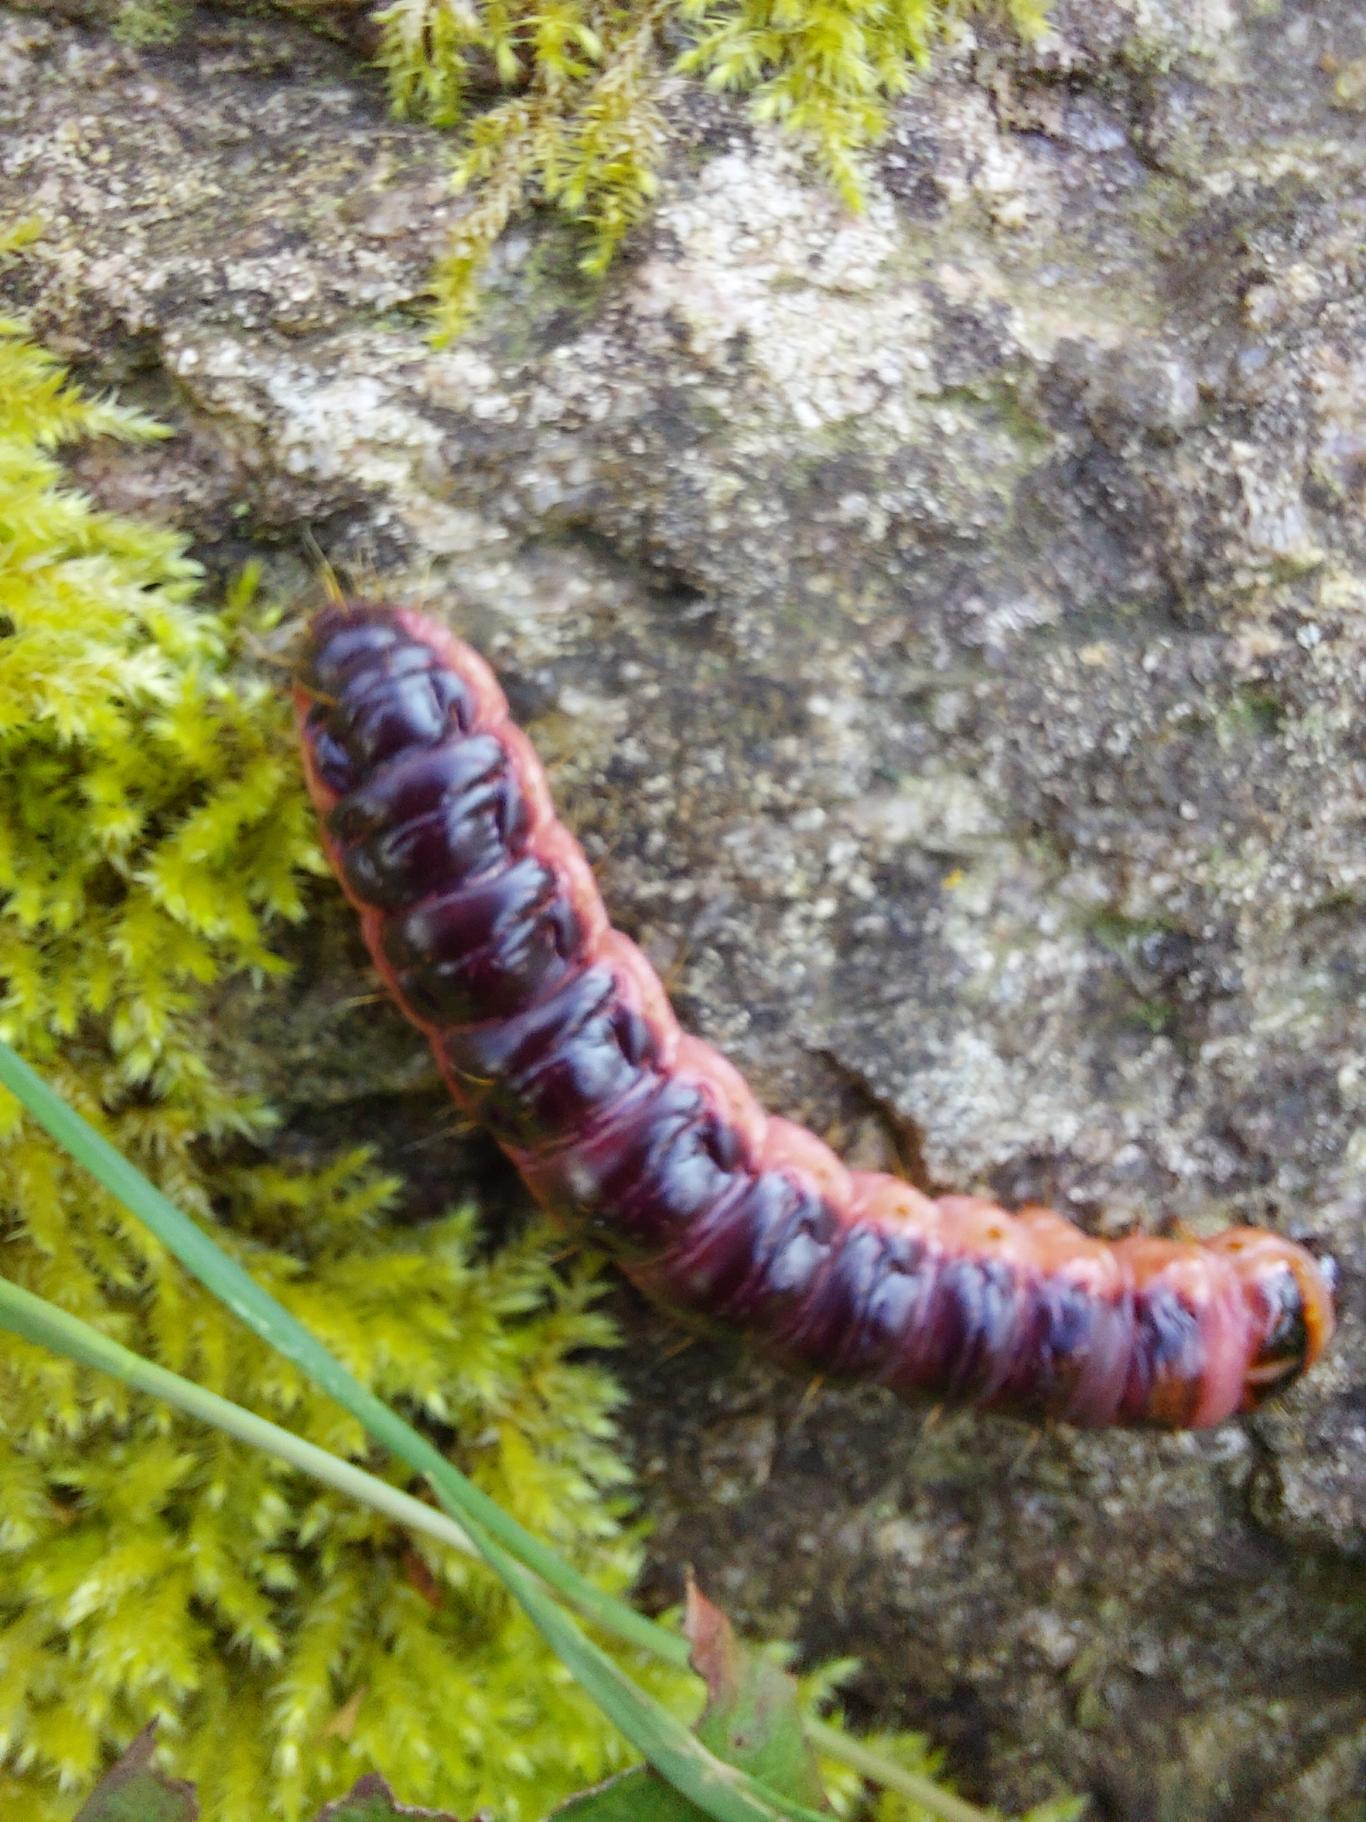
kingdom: Animalia
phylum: Arthropoda
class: Insecta
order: Lepidoptera
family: Cossidae
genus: Cossus
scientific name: Cossus cossus
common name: Pileborer
